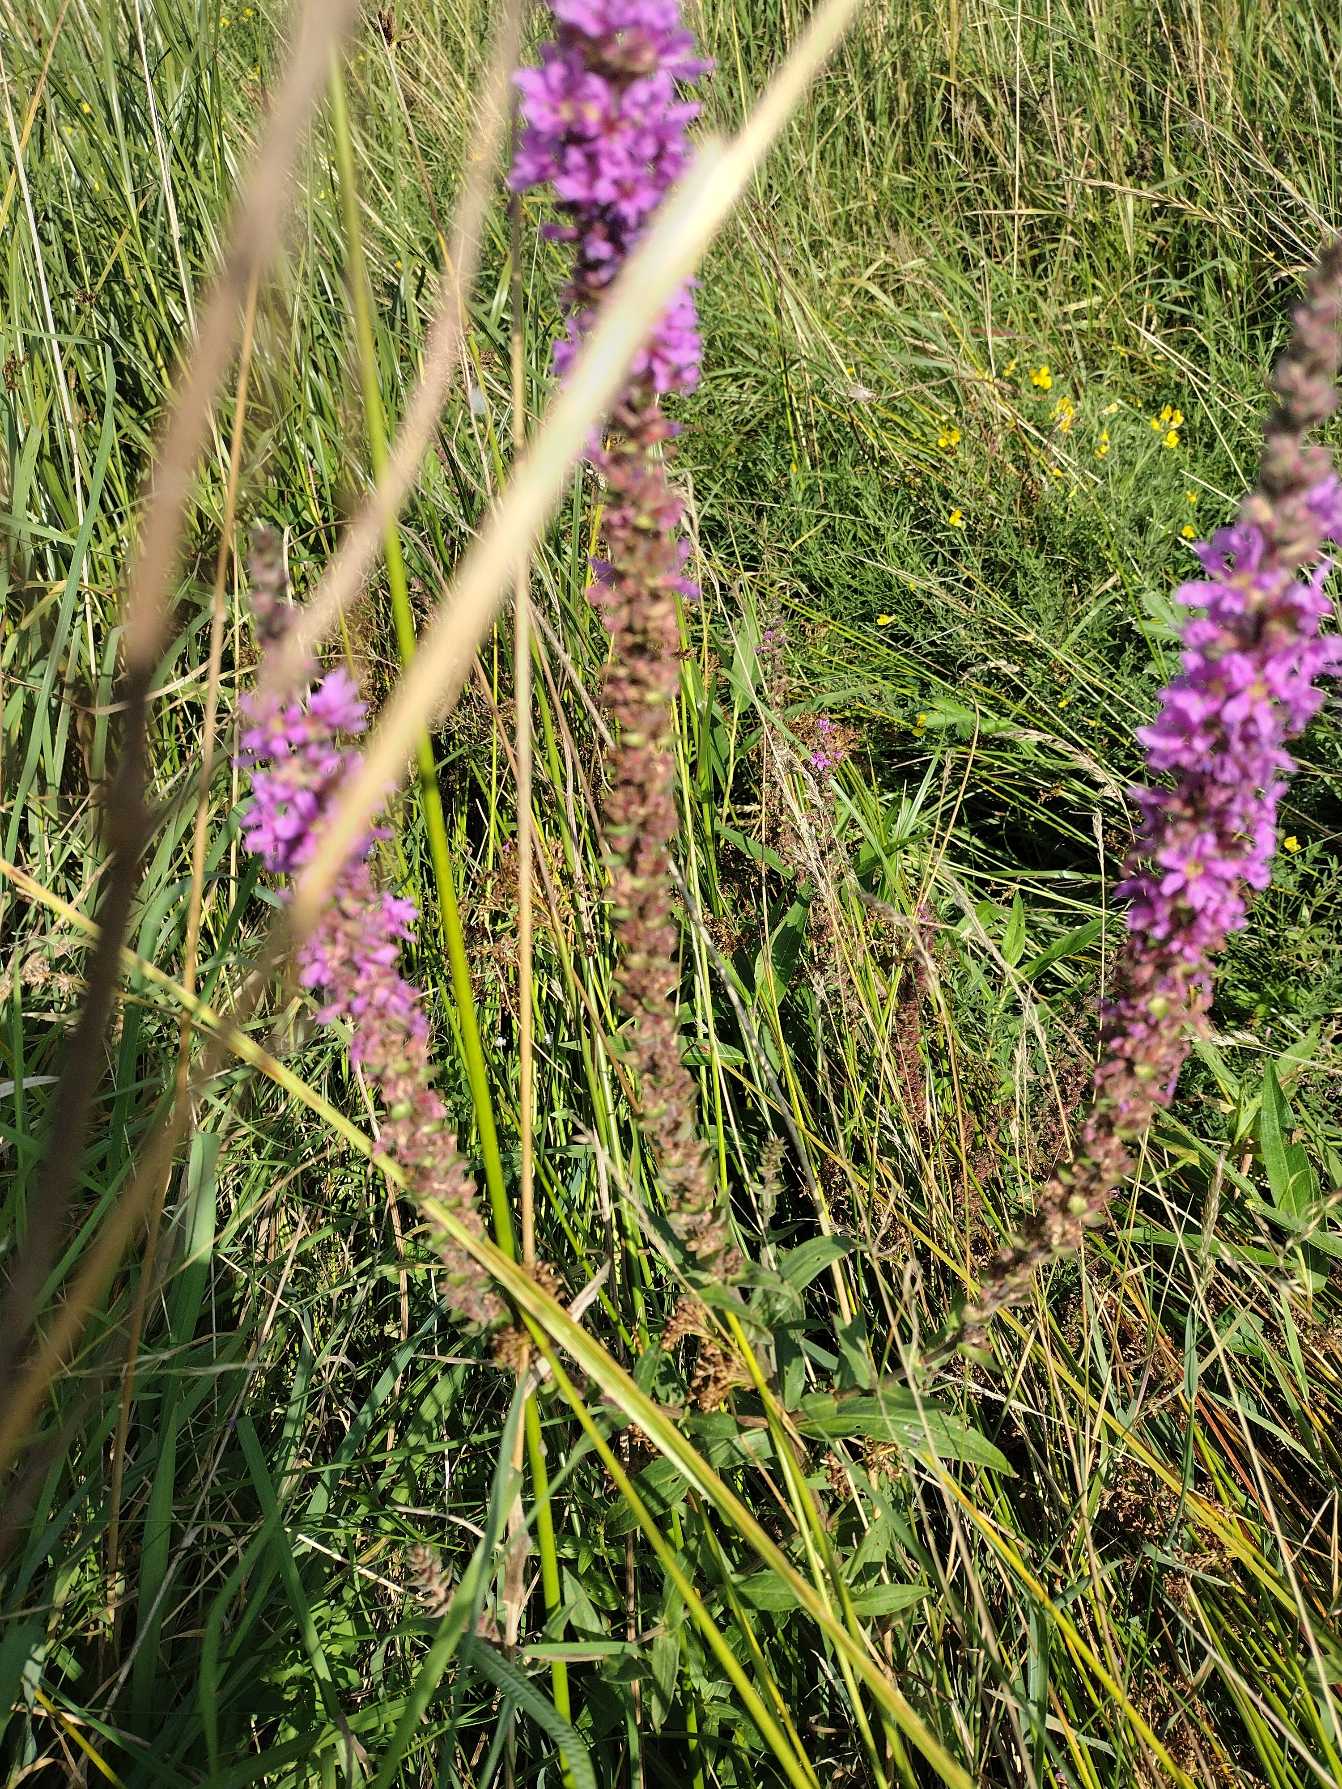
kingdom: Plantae
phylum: Tracheophyta
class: Magnoliopsida
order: Myrtales
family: Lythraceae
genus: Lythrum
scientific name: Lythrum salicaria
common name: Kattehale
